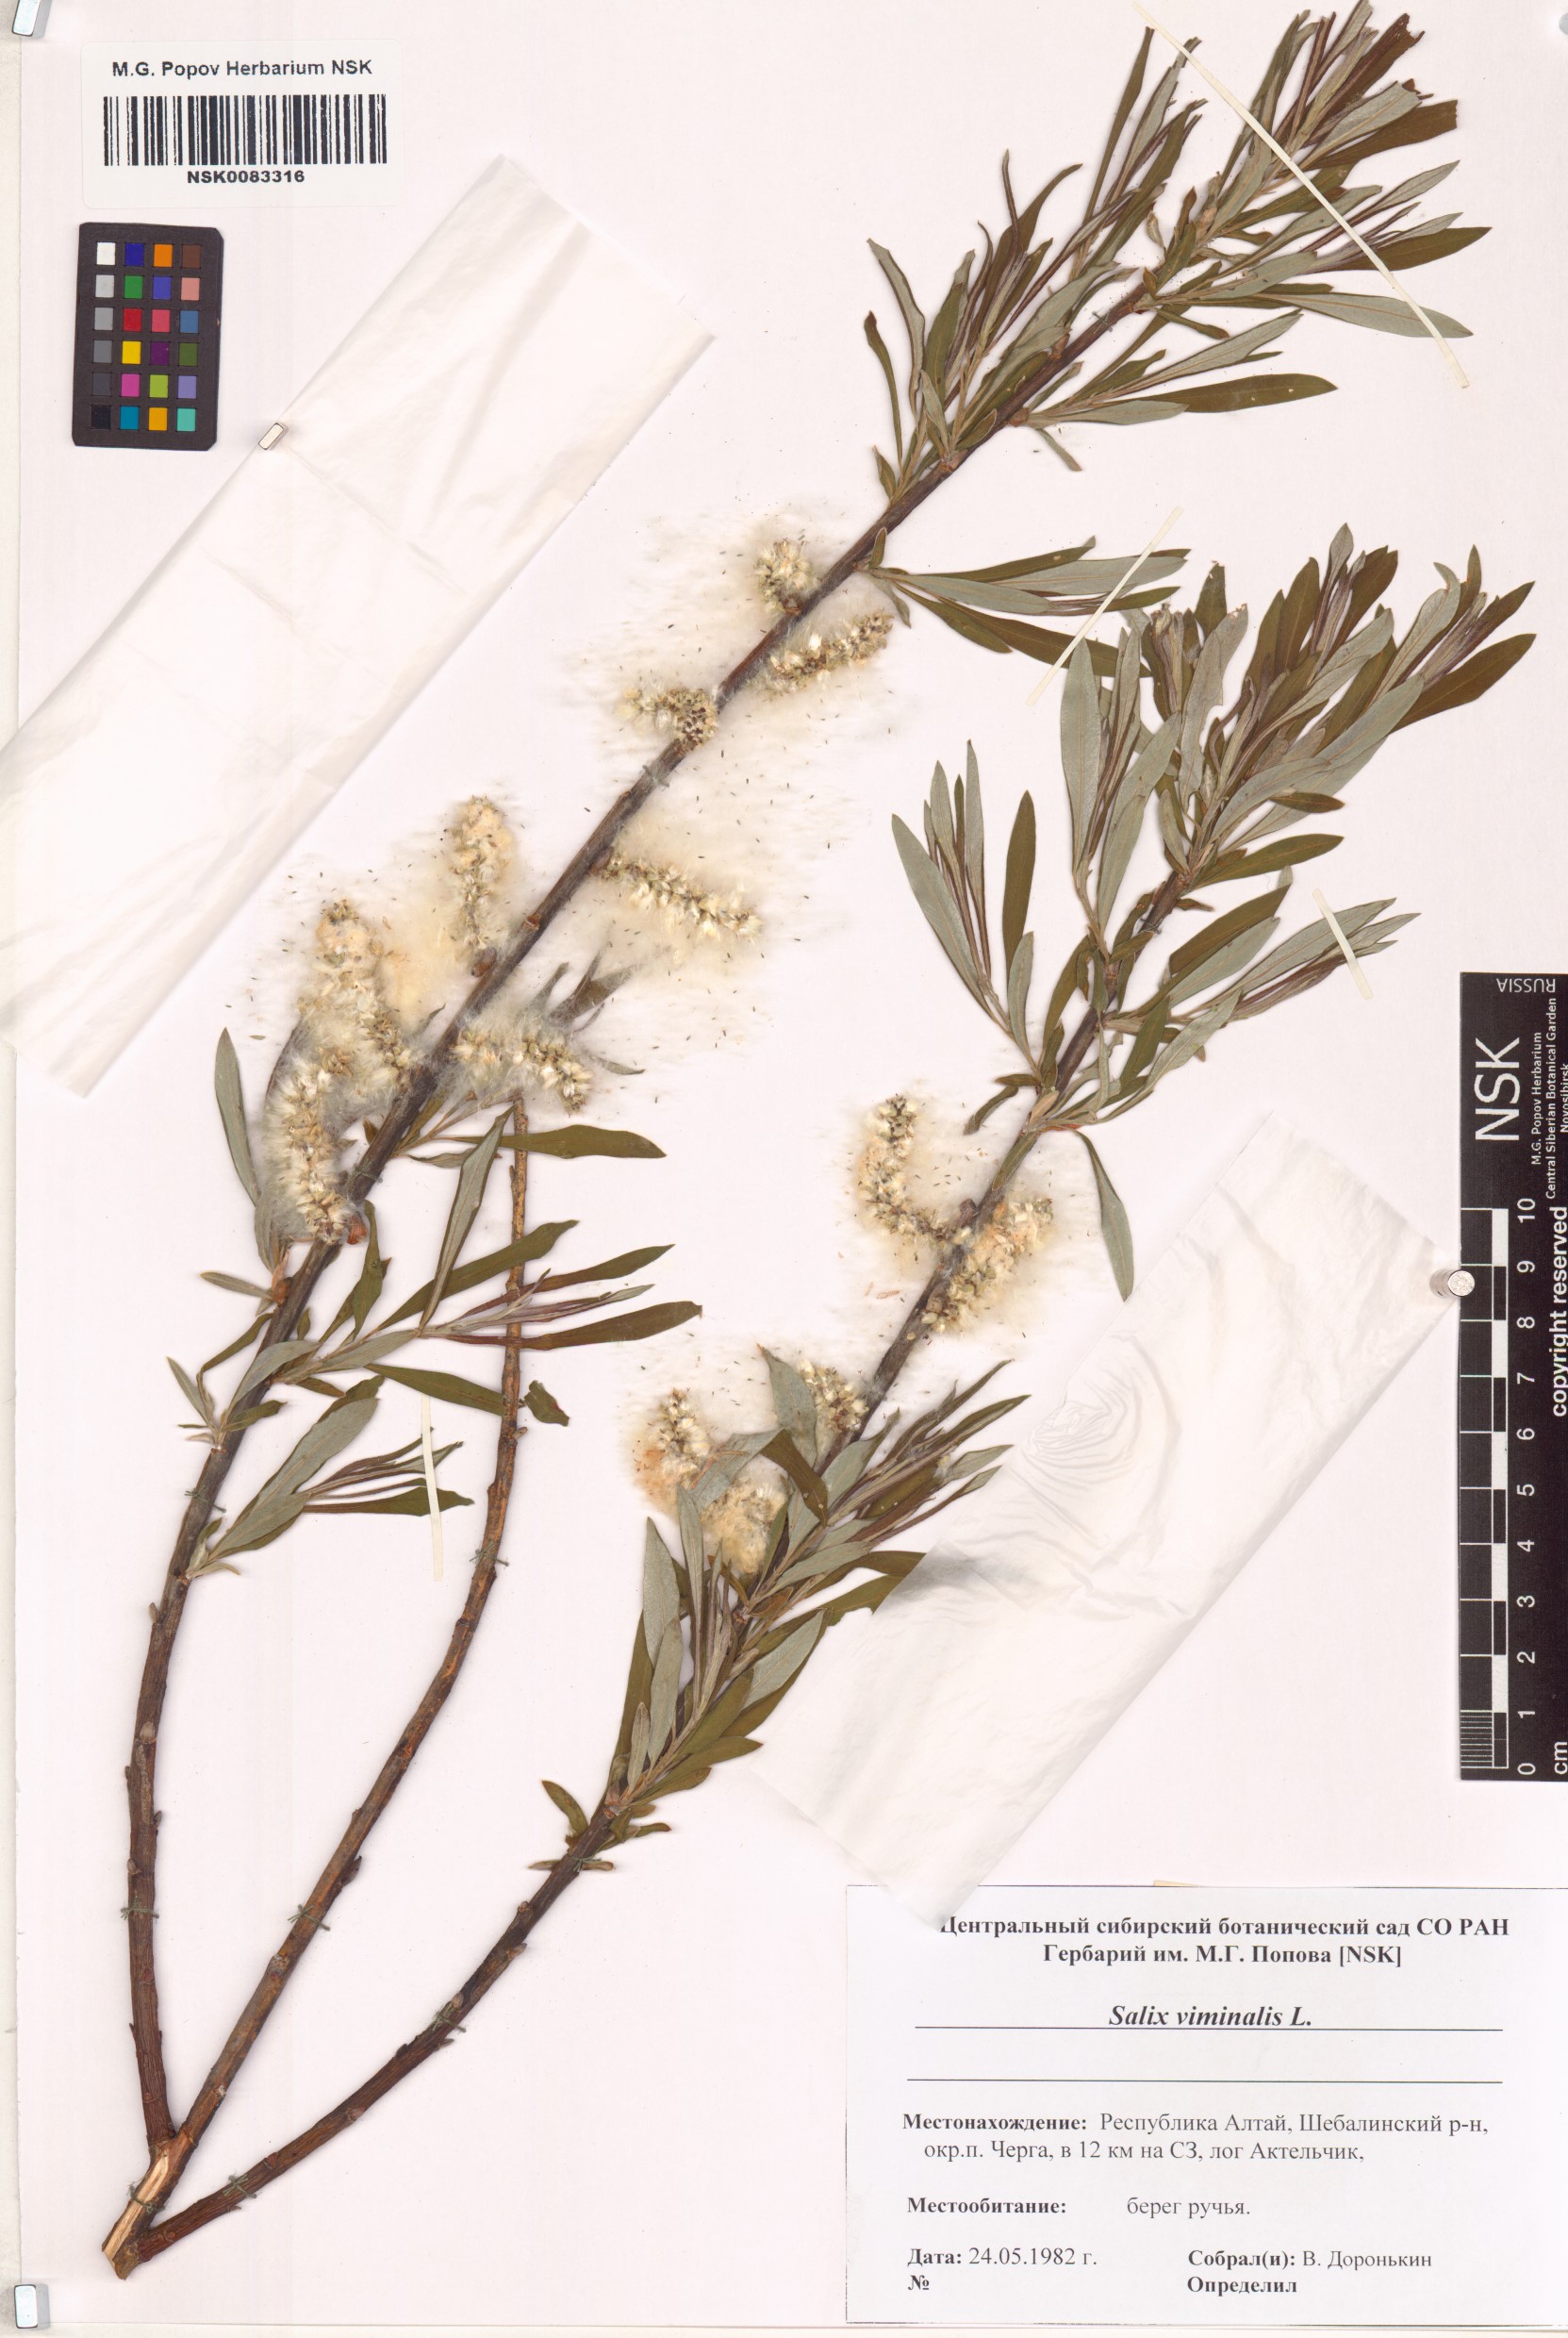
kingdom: Plantae
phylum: Tracheophyta
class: Magnoliopsida
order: Malpighiales
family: Salicaceae
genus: Salix
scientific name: Salix viminalis
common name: Osier
